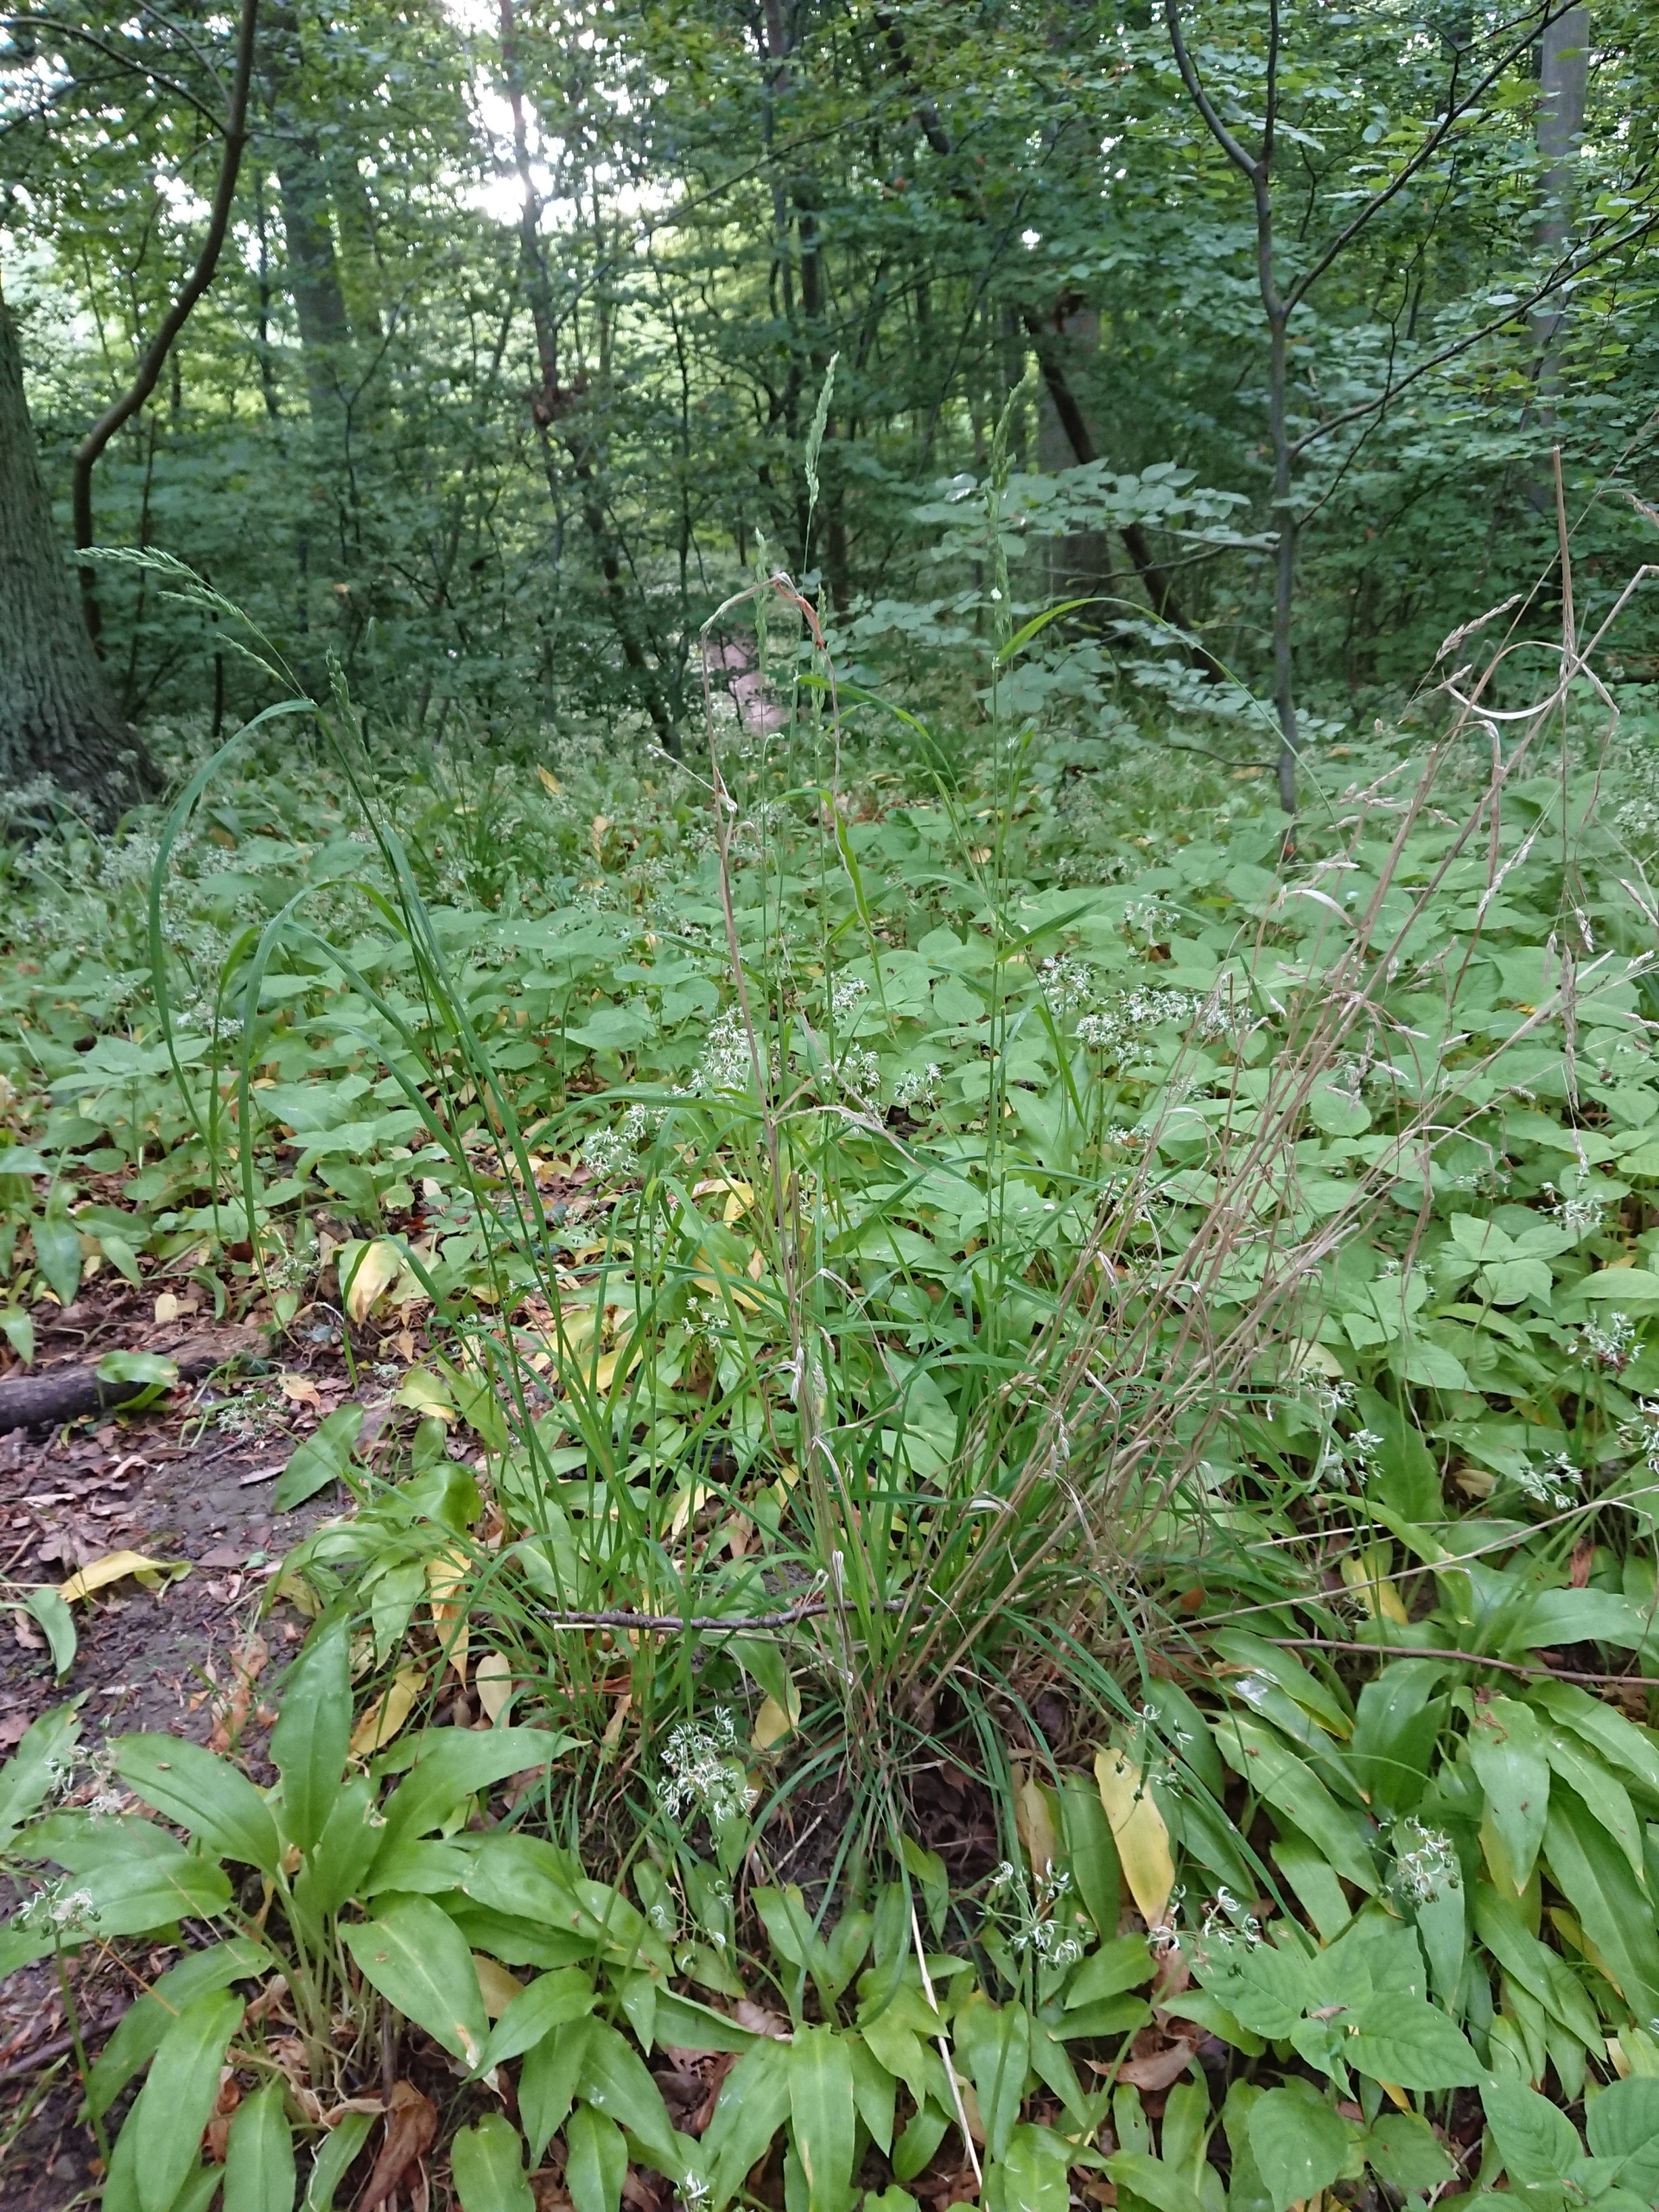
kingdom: Plantae
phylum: Tracheophyta
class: Liliopsida
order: Poales
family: Poaceae
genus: Dactylis
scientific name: Dactylis glomerata
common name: Skov-hundegræs
